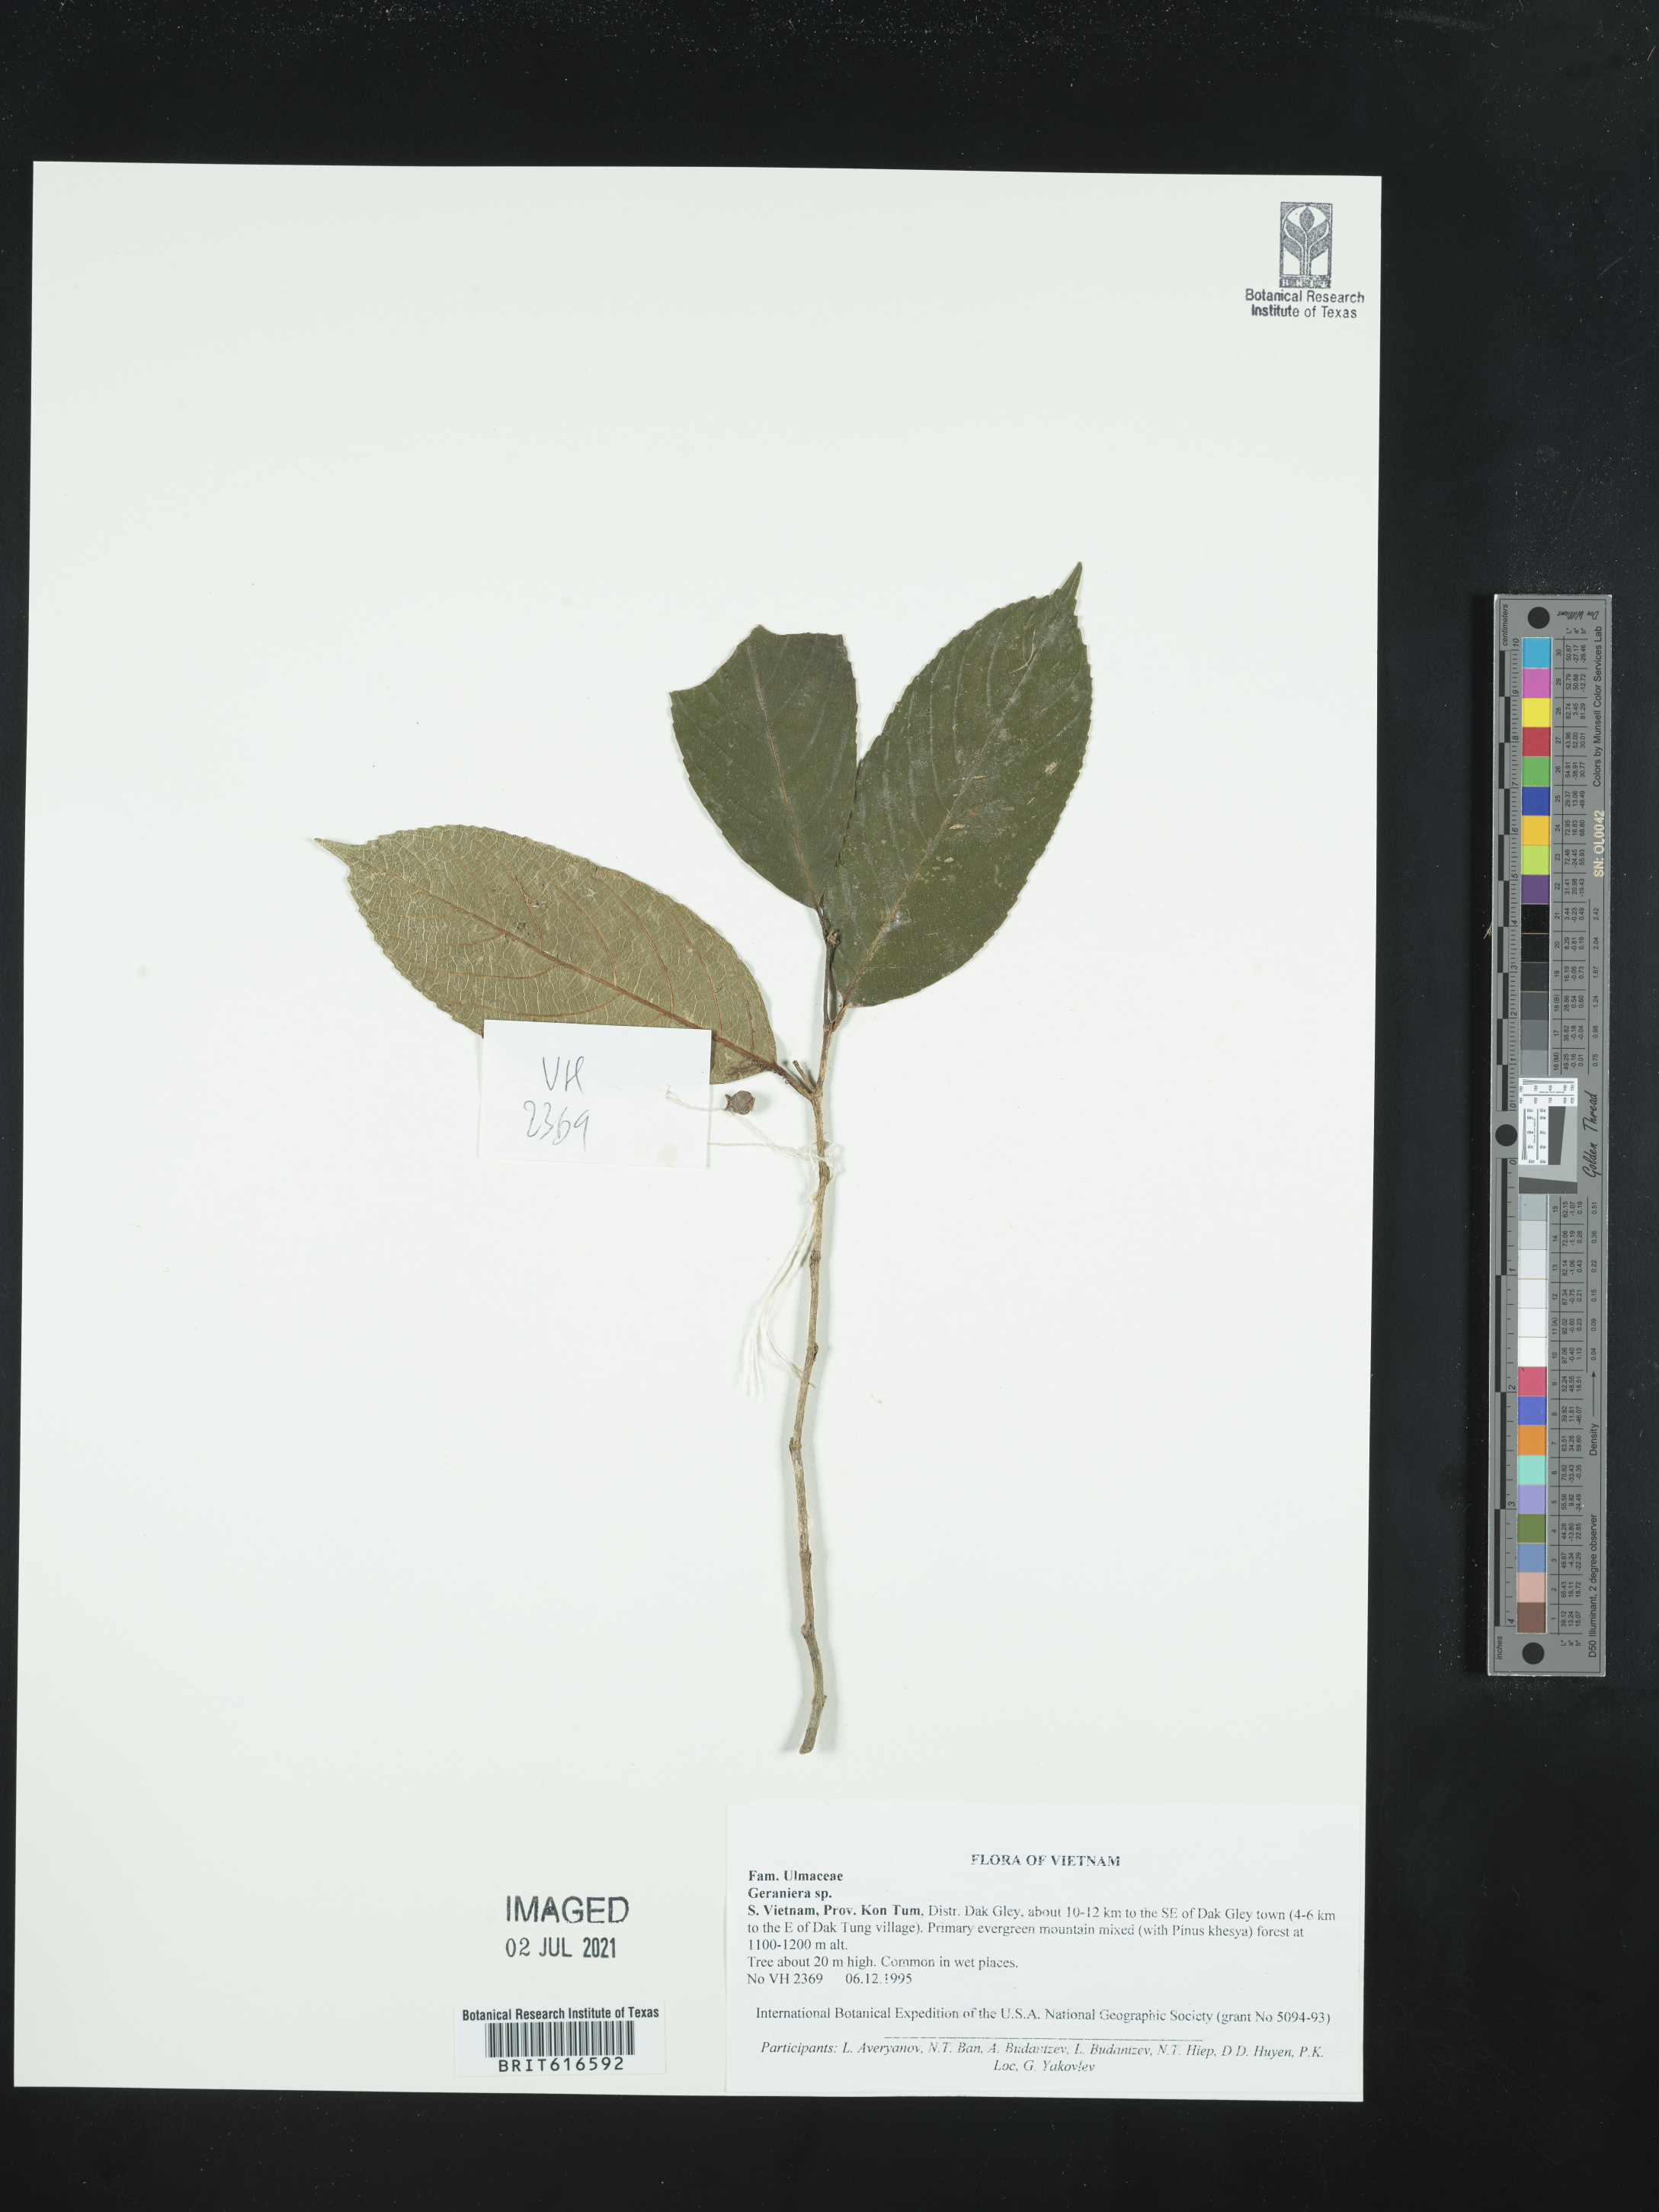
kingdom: Plantae
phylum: Tracheophyta
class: Magnoliopsida
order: Rosales
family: Cannabaceae
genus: Gironniera
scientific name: Gironniera
